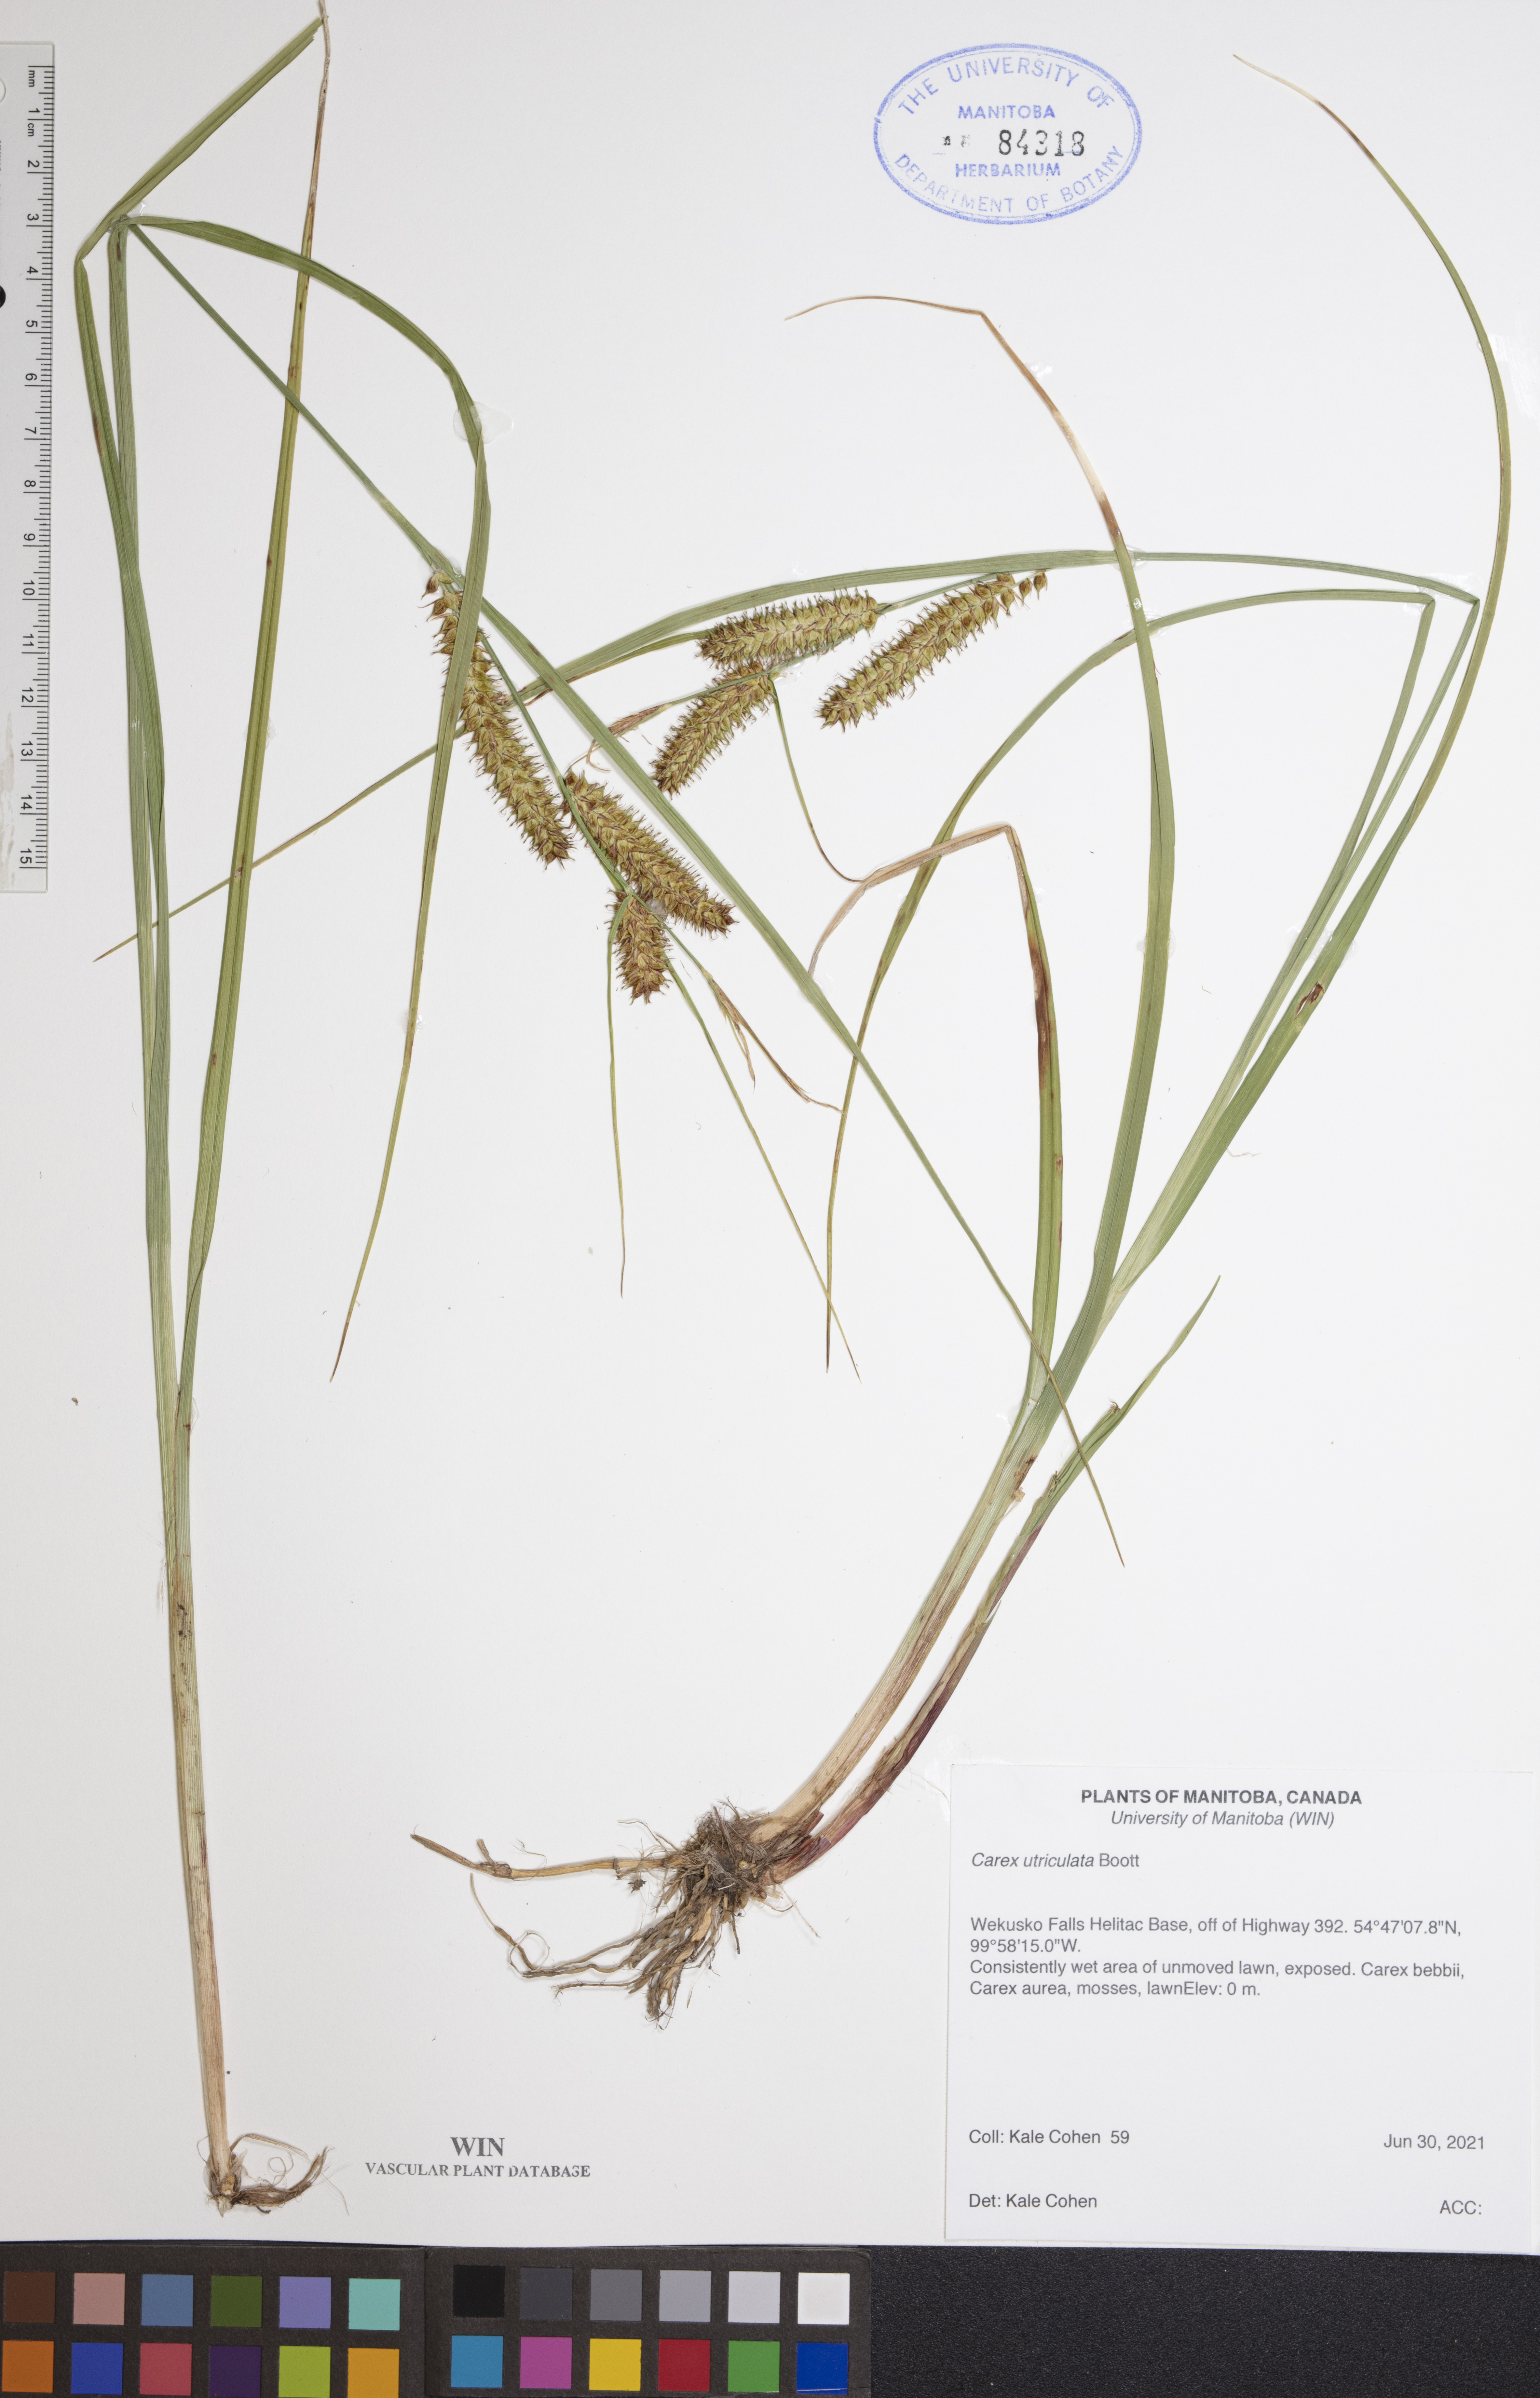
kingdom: Plantae
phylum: Tracheophyta
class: Liliopsida
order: Poales
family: Cyperaceae
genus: Carex
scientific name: Carex utriculata
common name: Beaked sedge
